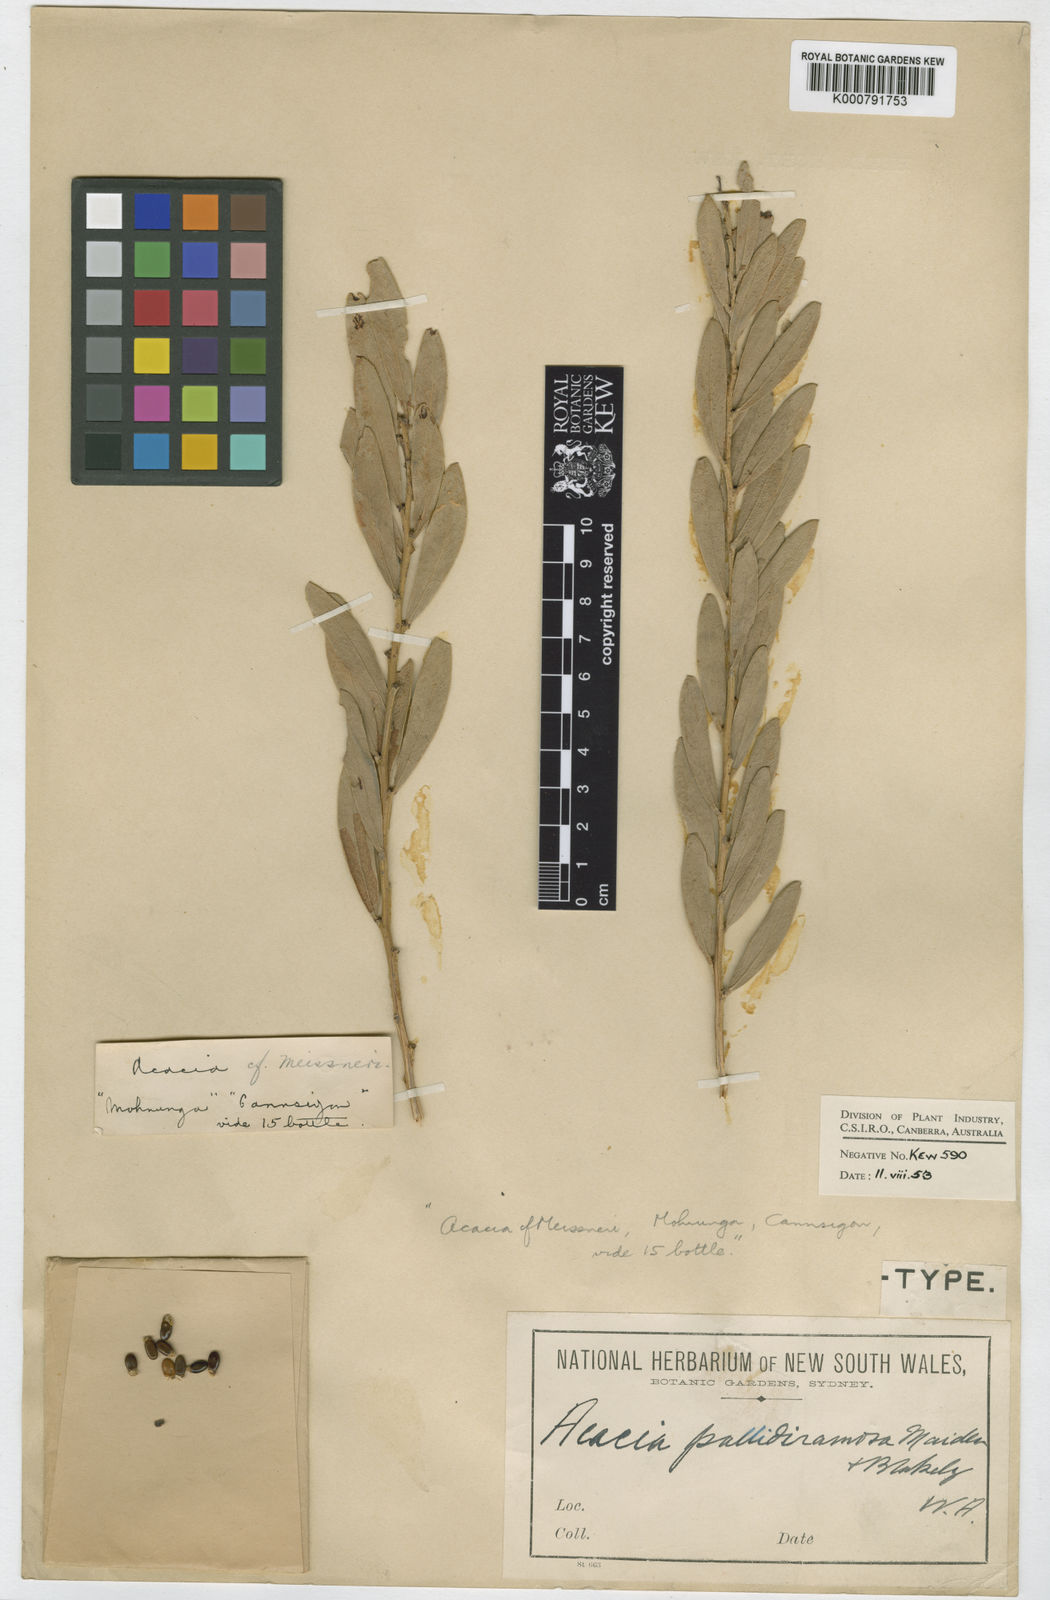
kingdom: Plantae
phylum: Tracheophyta
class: Magnoliopsida
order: Fabales
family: Fabaceae
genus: Acacia
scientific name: Acacia ligulata
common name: Dune wattle
